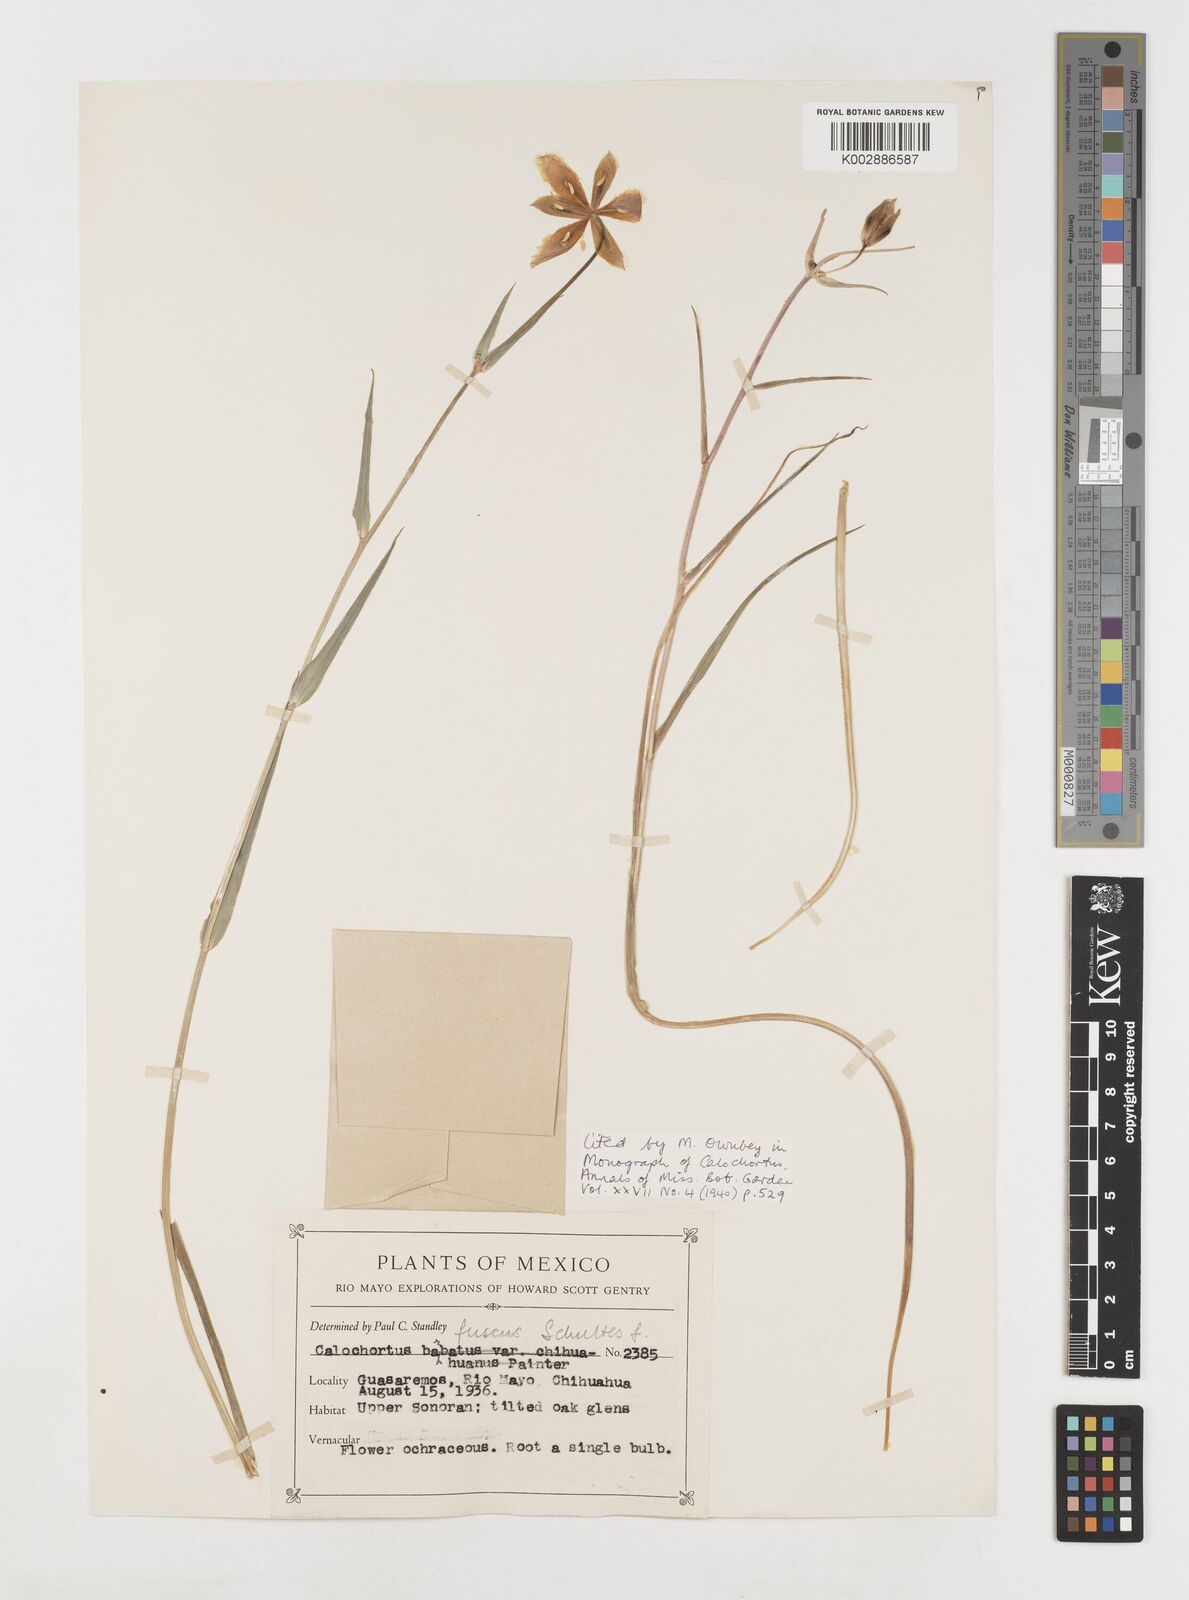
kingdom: Plantae
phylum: Tracheophyta
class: Liliopsida
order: Liliales
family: Liliaceae
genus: Calochortus
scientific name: Calochortus fuscus
